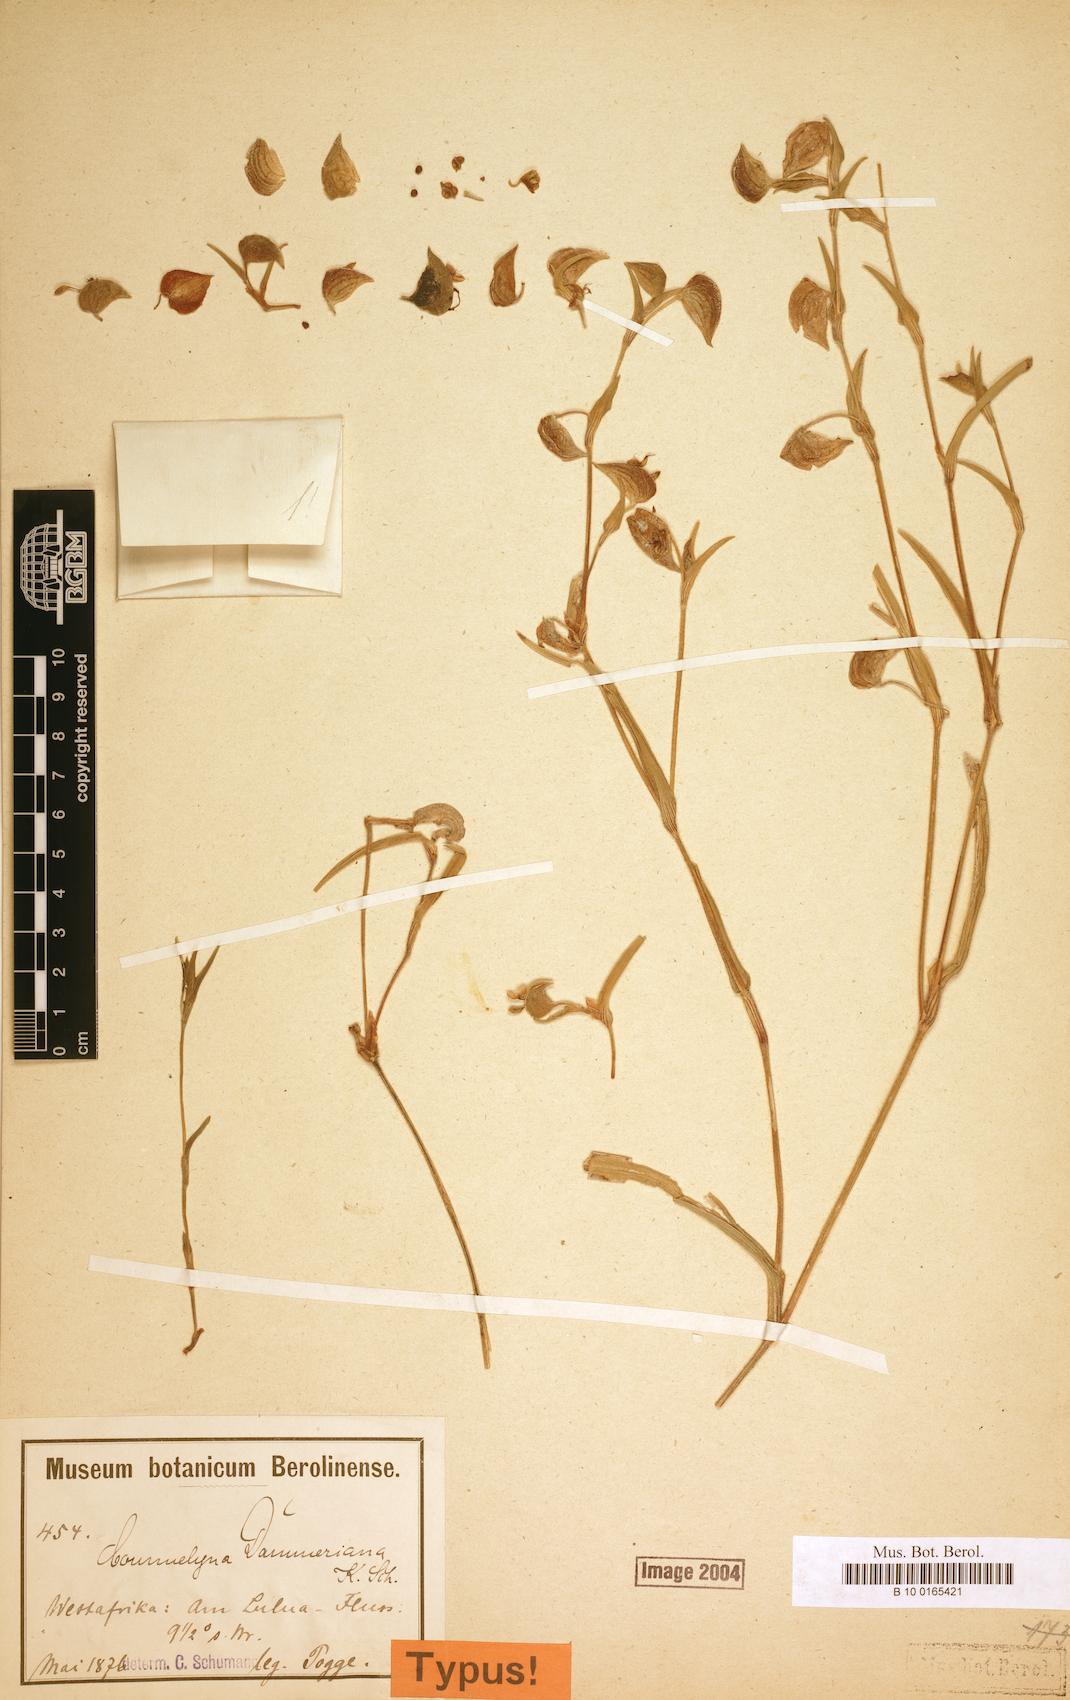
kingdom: Plantae
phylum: Tracheophyta
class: Liliopsida
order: Commelinales
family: Commelinaceae
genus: Commelina
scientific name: Commelina dammeriana
